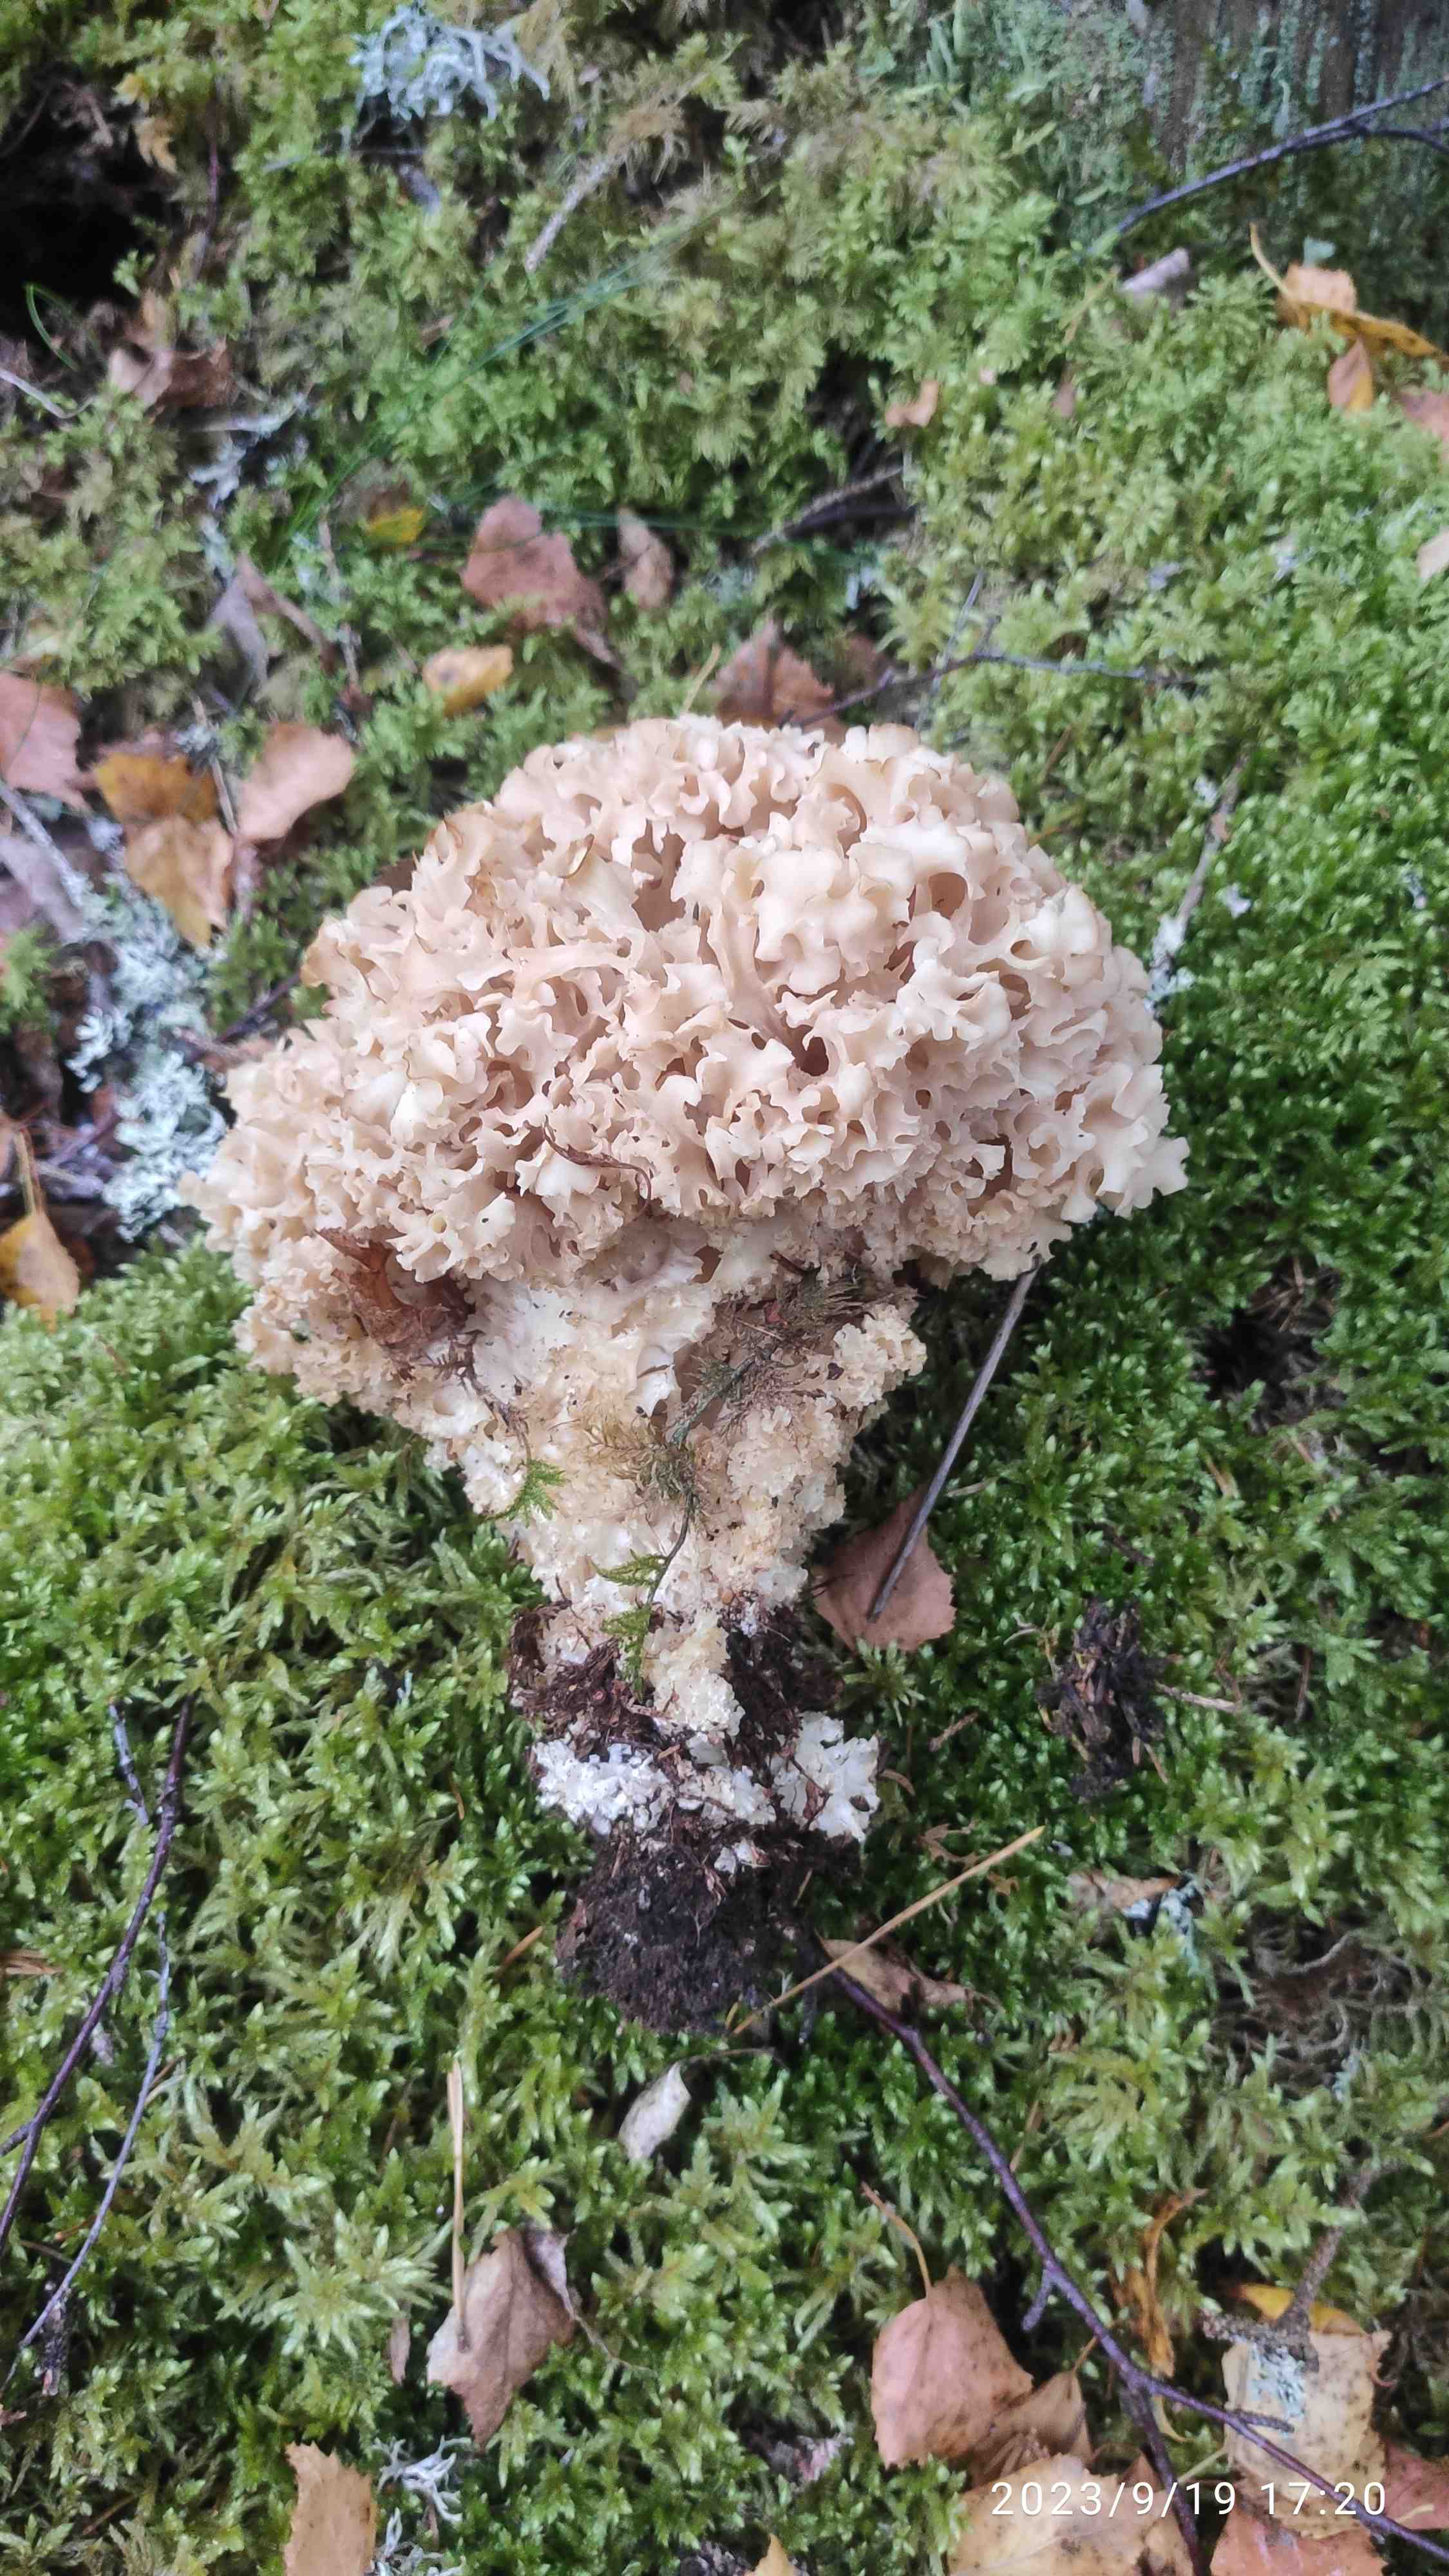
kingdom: Fungi
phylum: Basidiomycota
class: Agaricomycetes
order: Polyporales
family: Sparassidaceae
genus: Sparassis
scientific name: Sparassis crispa
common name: kruset blomkålssvamp
